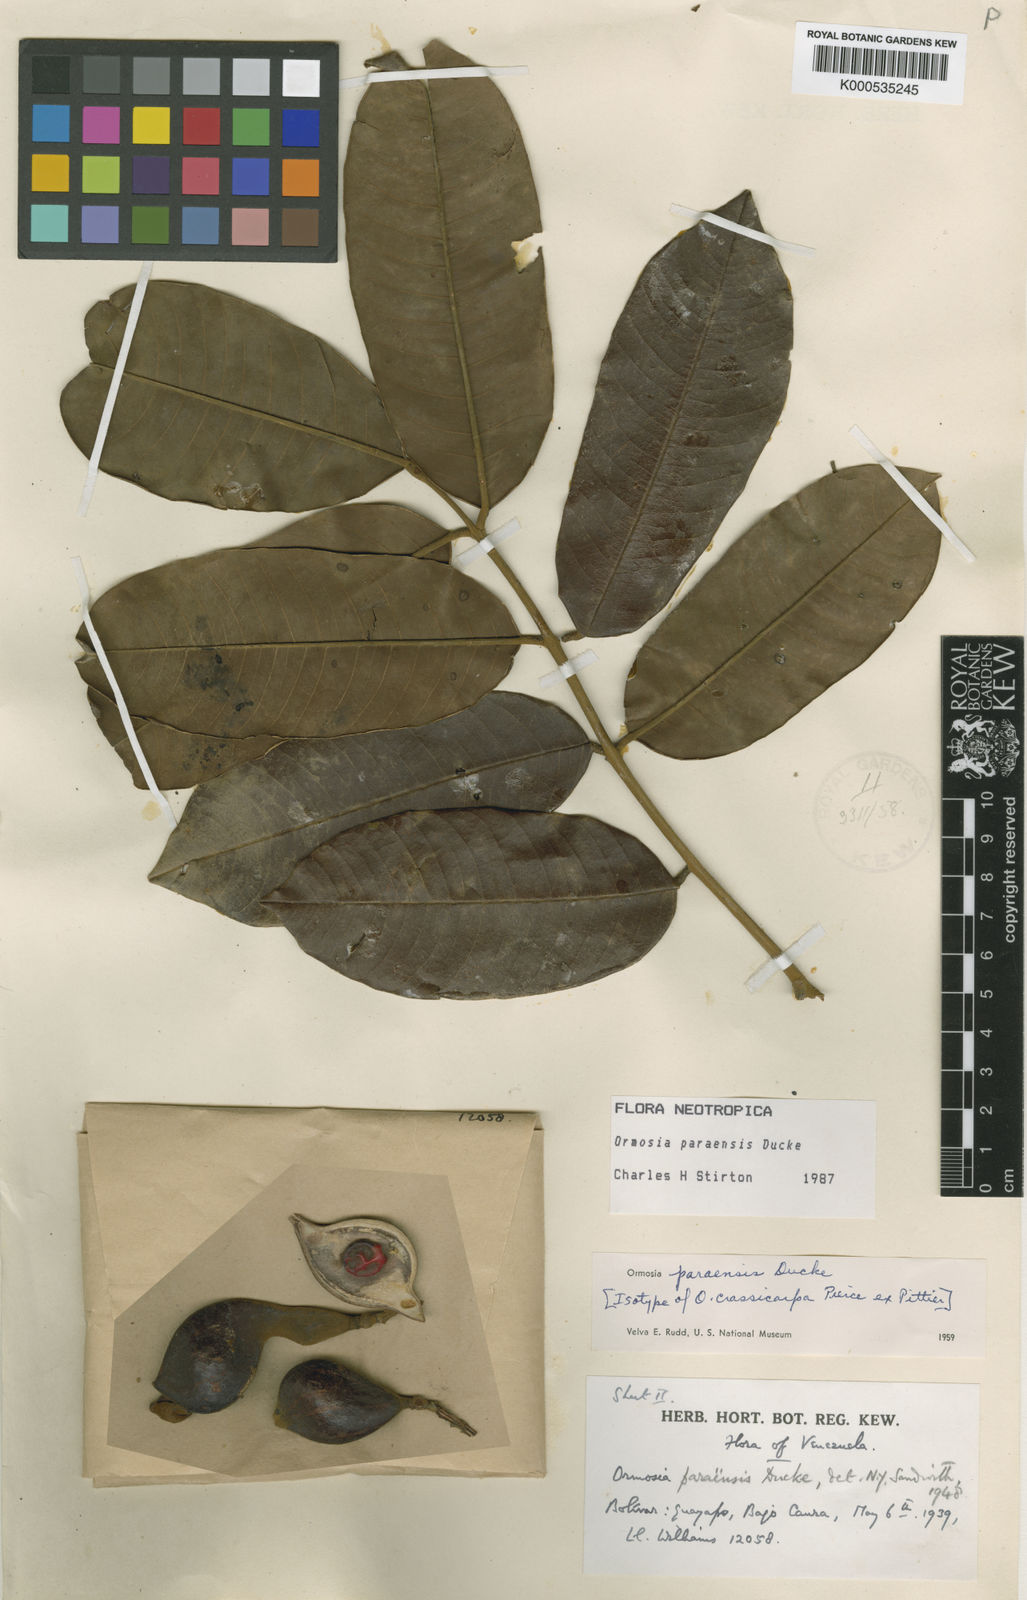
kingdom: Plantae
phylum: Tracheophyta
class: Magnoliopsida
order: Fabales
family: Fabaceae
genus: Ormosia
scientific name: Ormosia paraensis
